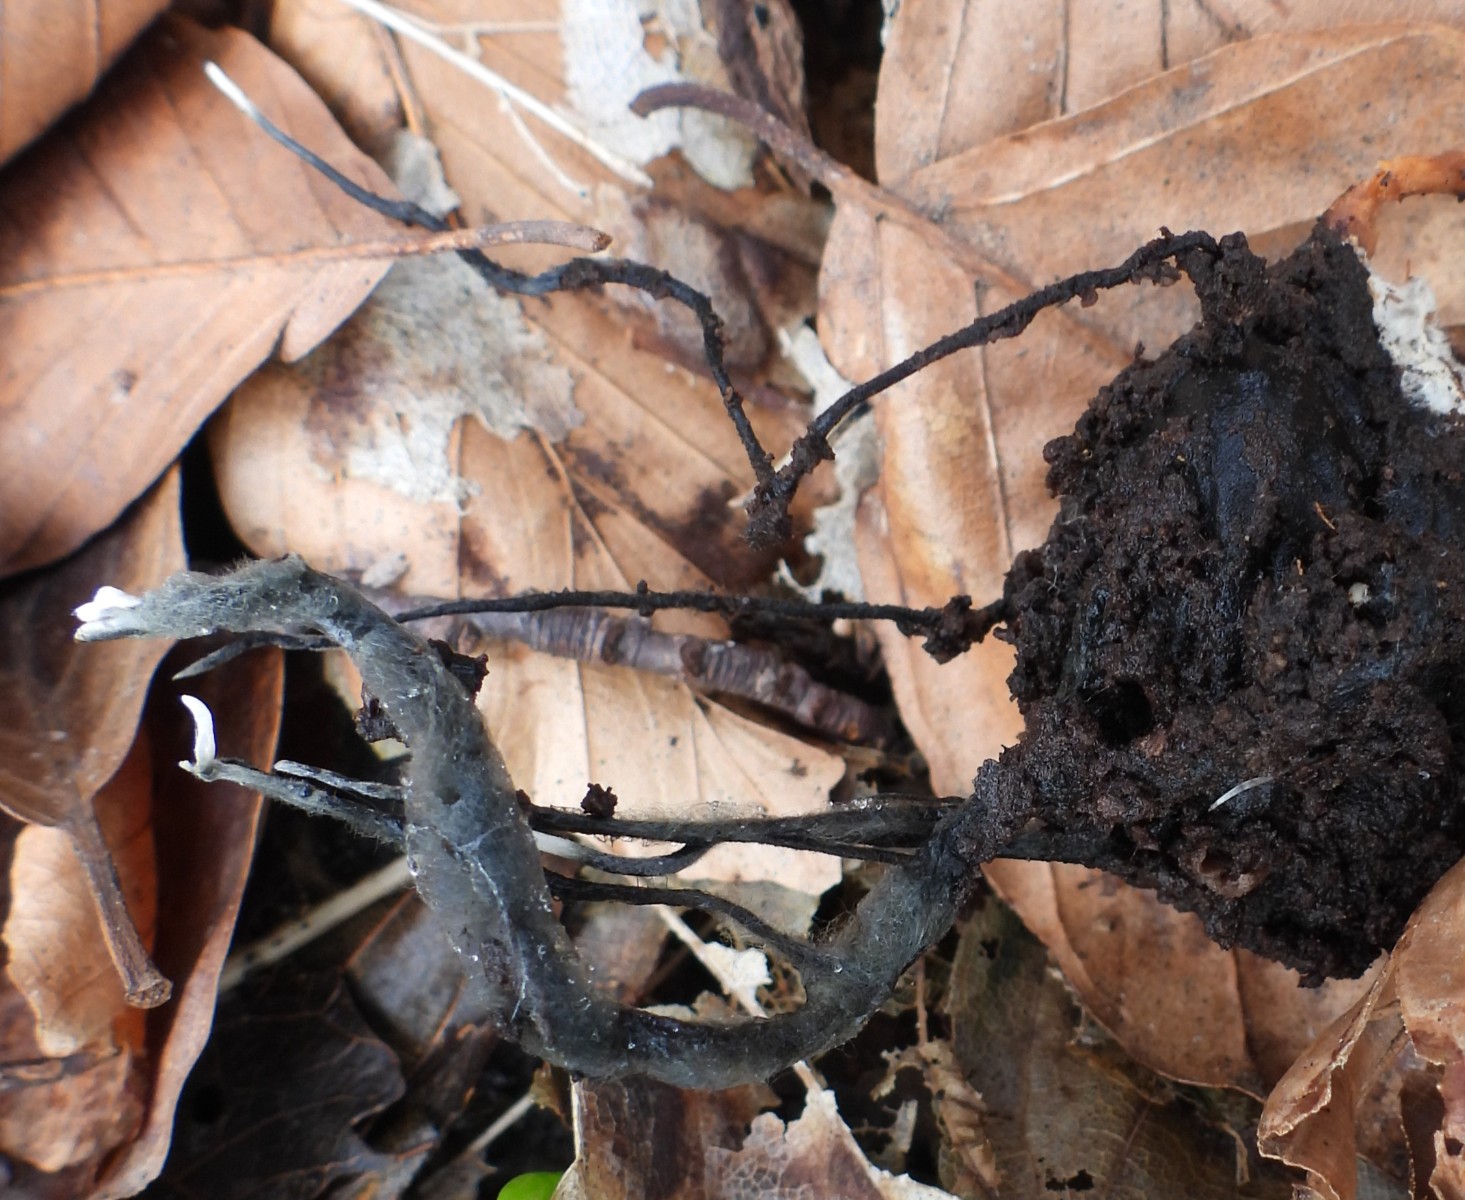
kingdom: Fungi
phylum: Ascomycota
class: Sordariomycetes
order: Xylariales
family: Xylariaceae
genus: Xylaria
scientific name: Xylaria carpophila
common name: bogskål-stødsvamp
